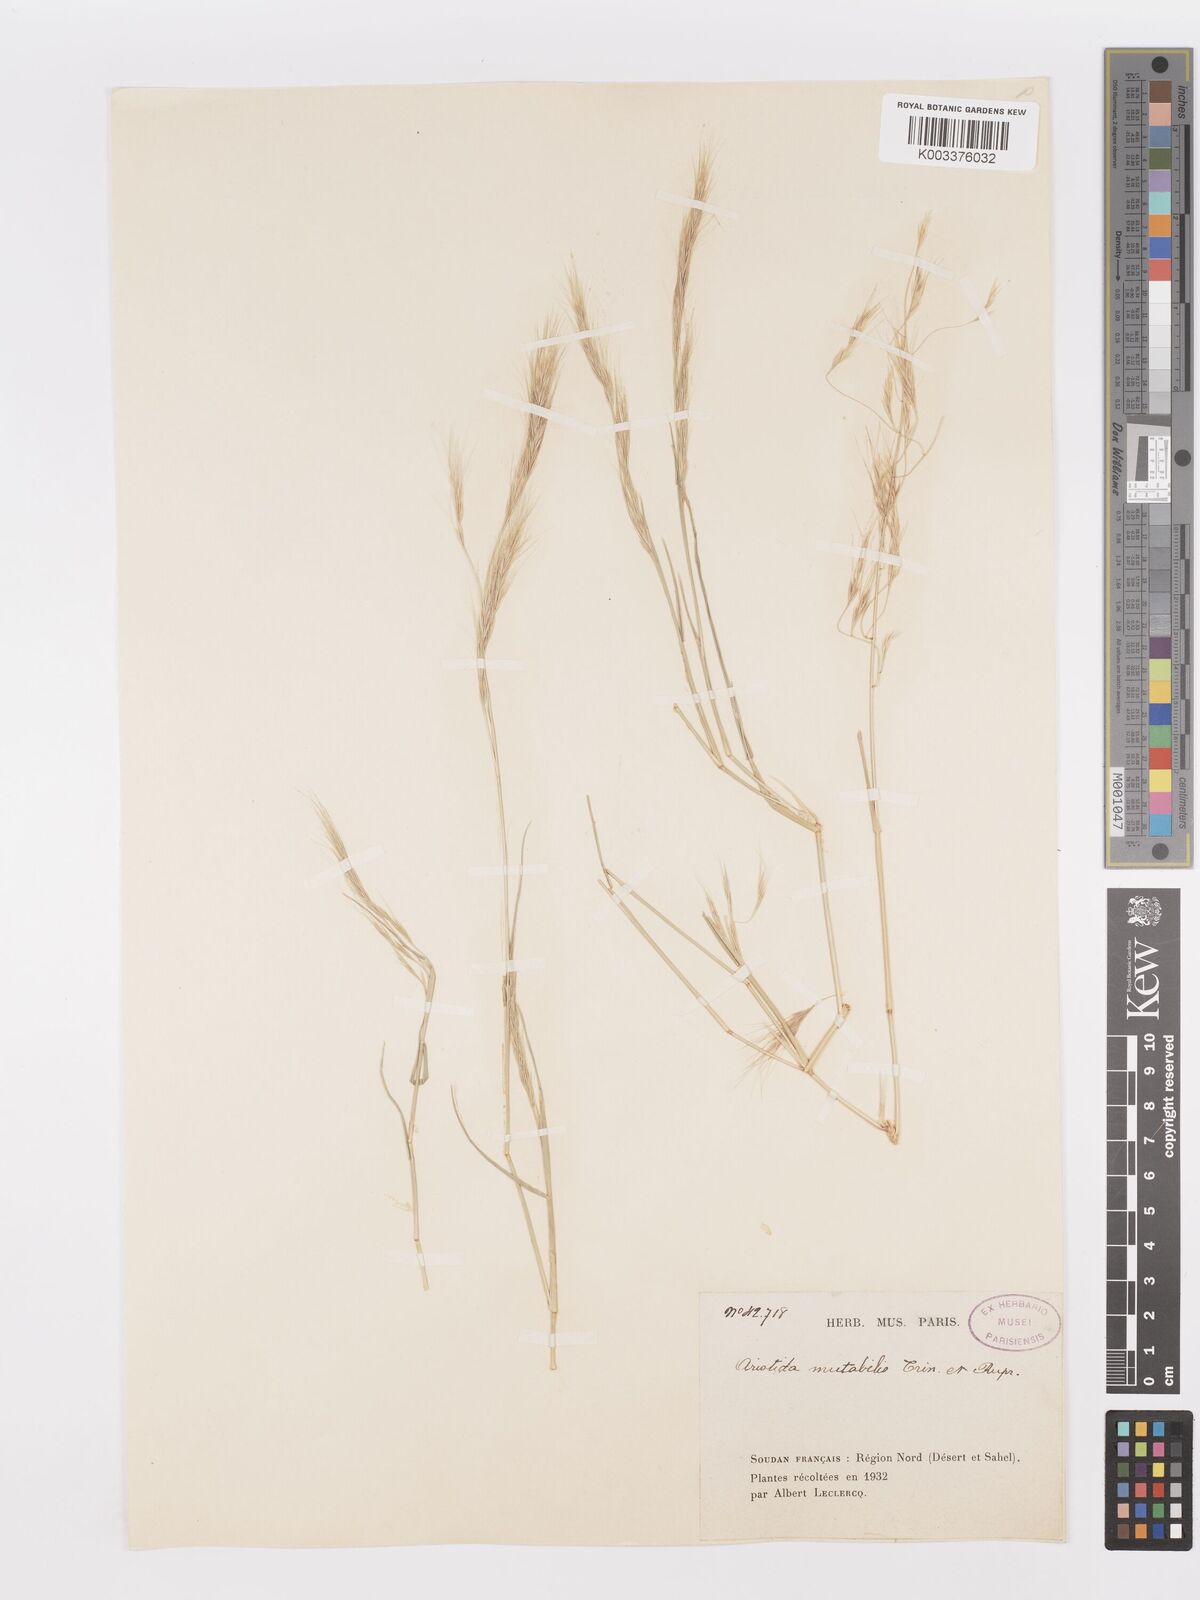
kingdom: Plantae
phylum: Tracheophyta
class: Liliopsida
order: Poales
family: Poaceae
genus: Aristida
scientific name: Aristida mutabilis
